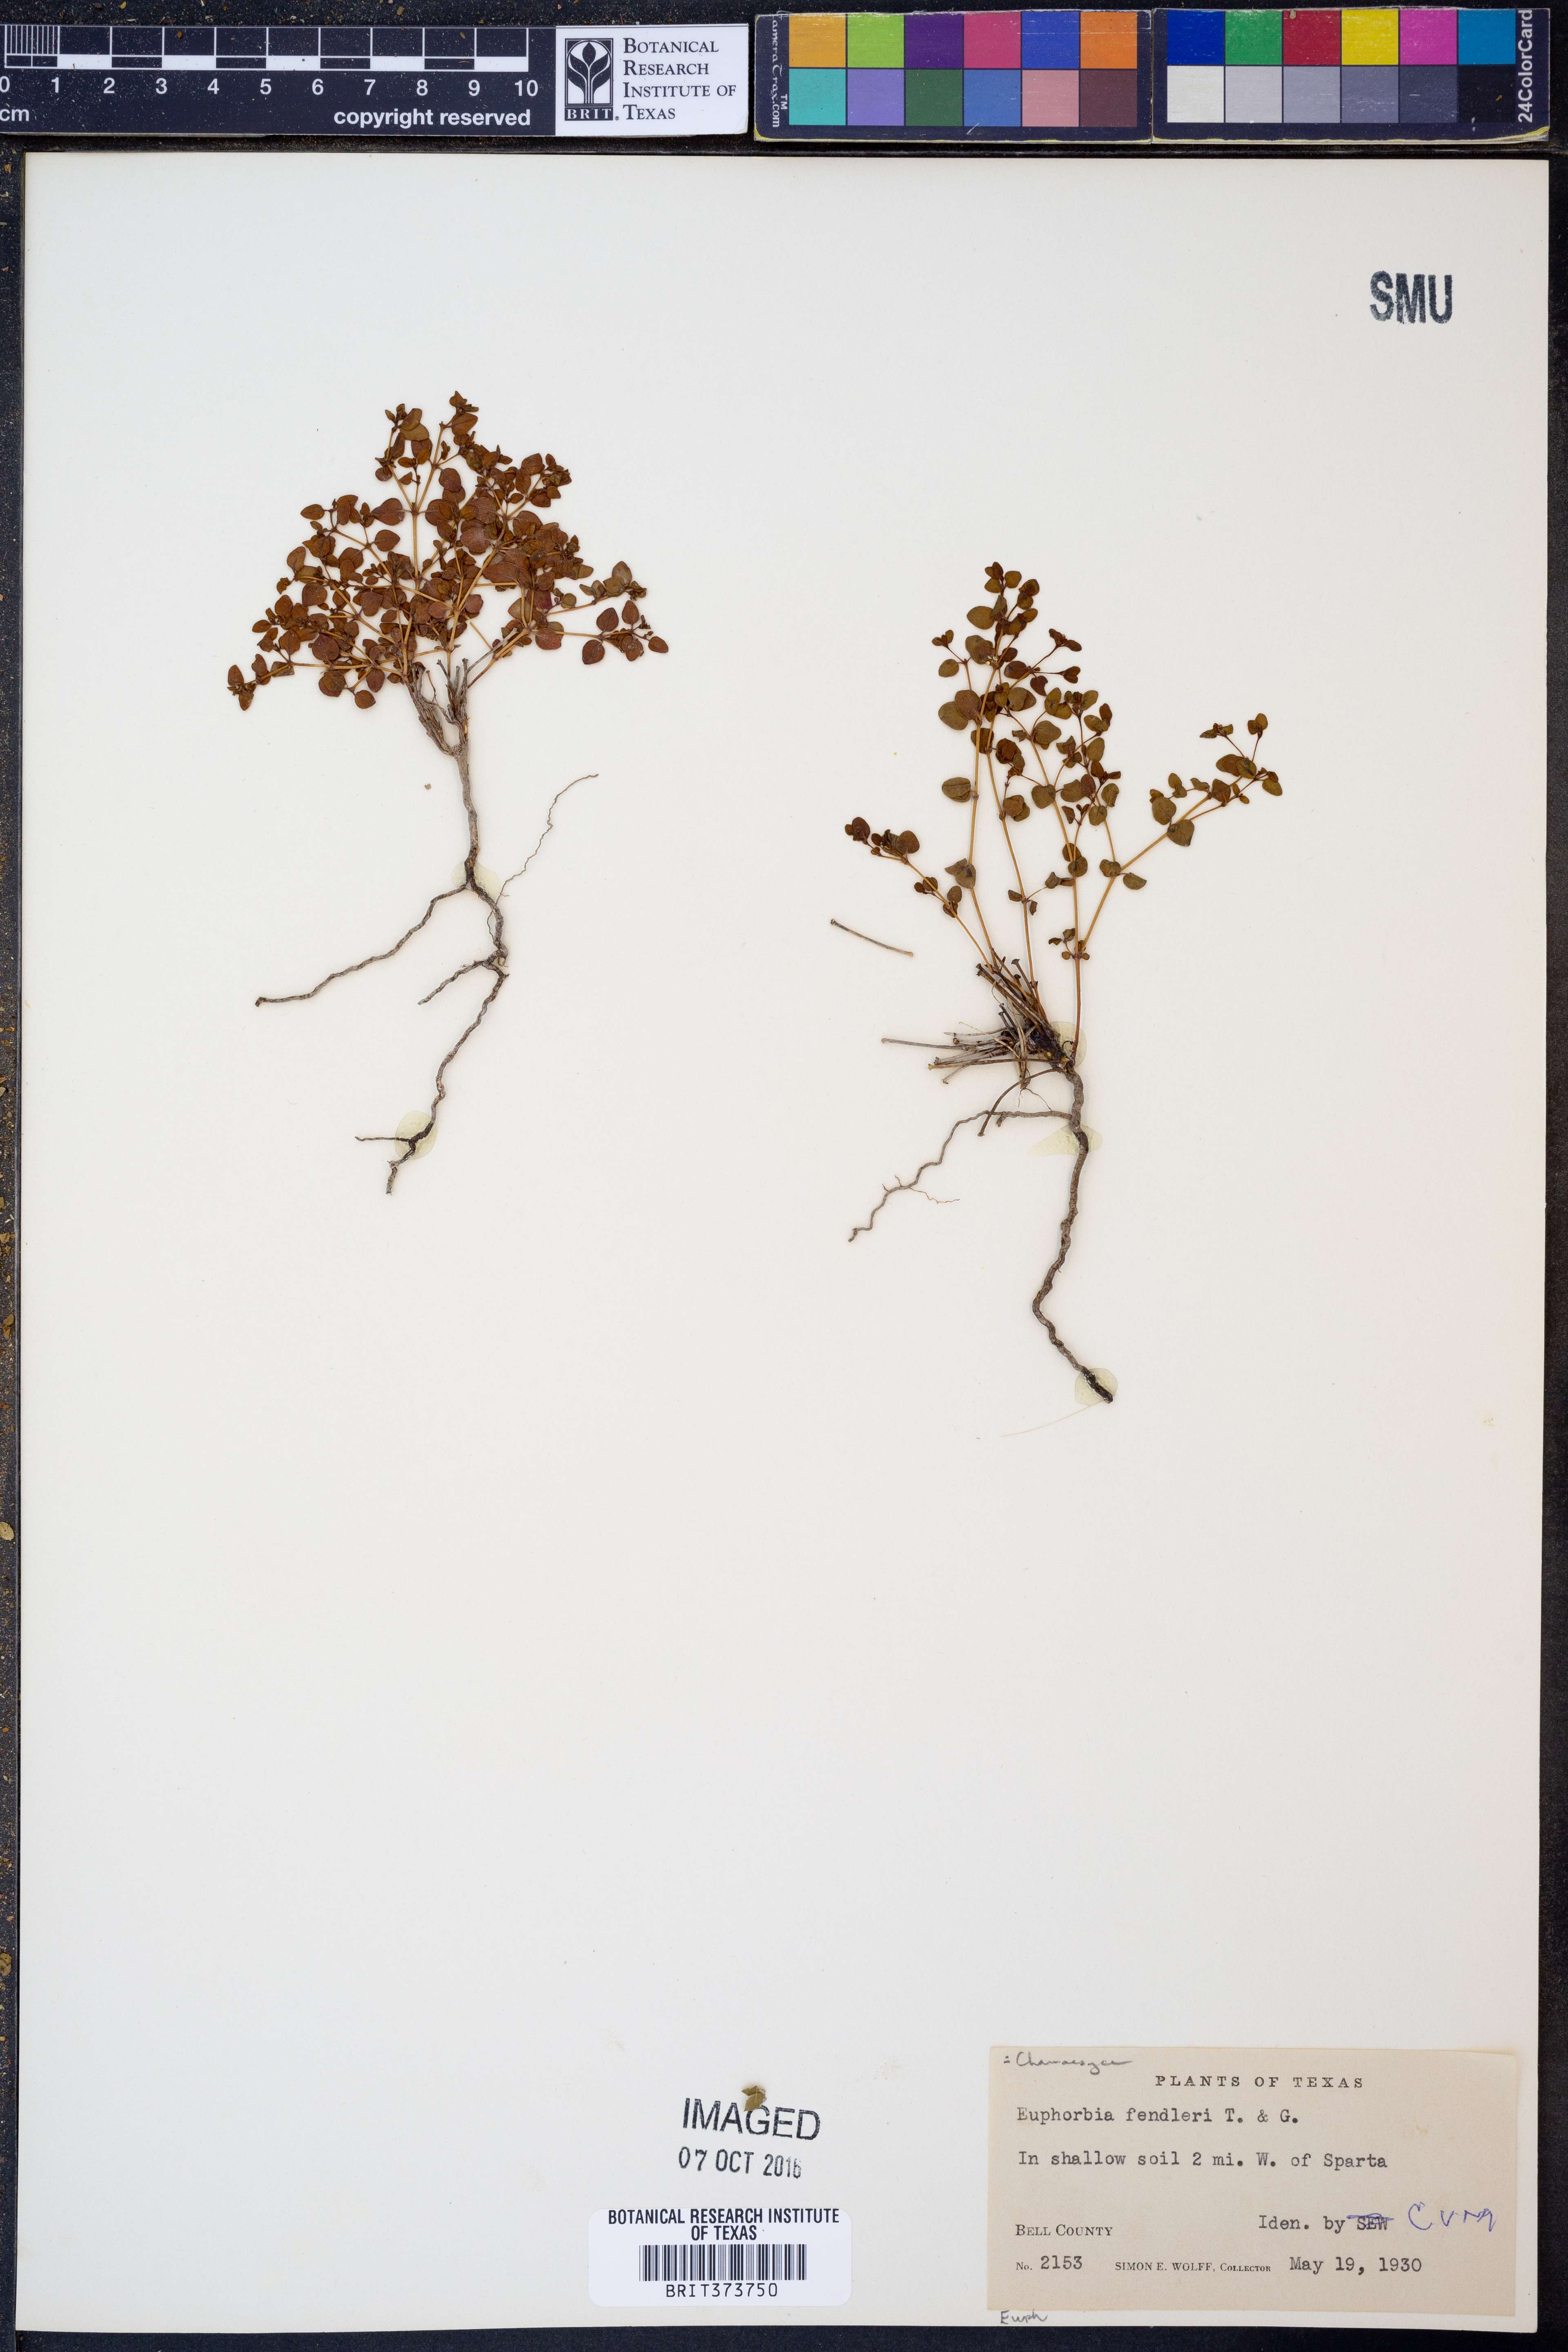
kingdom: Plantae
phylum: Tracheophyta
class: Magnoliopsida
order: Malpighiales
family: Euphorbiaceae
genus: Euphorbia
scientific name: Euphorbia fendleri
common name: Fendler's euphorbia
